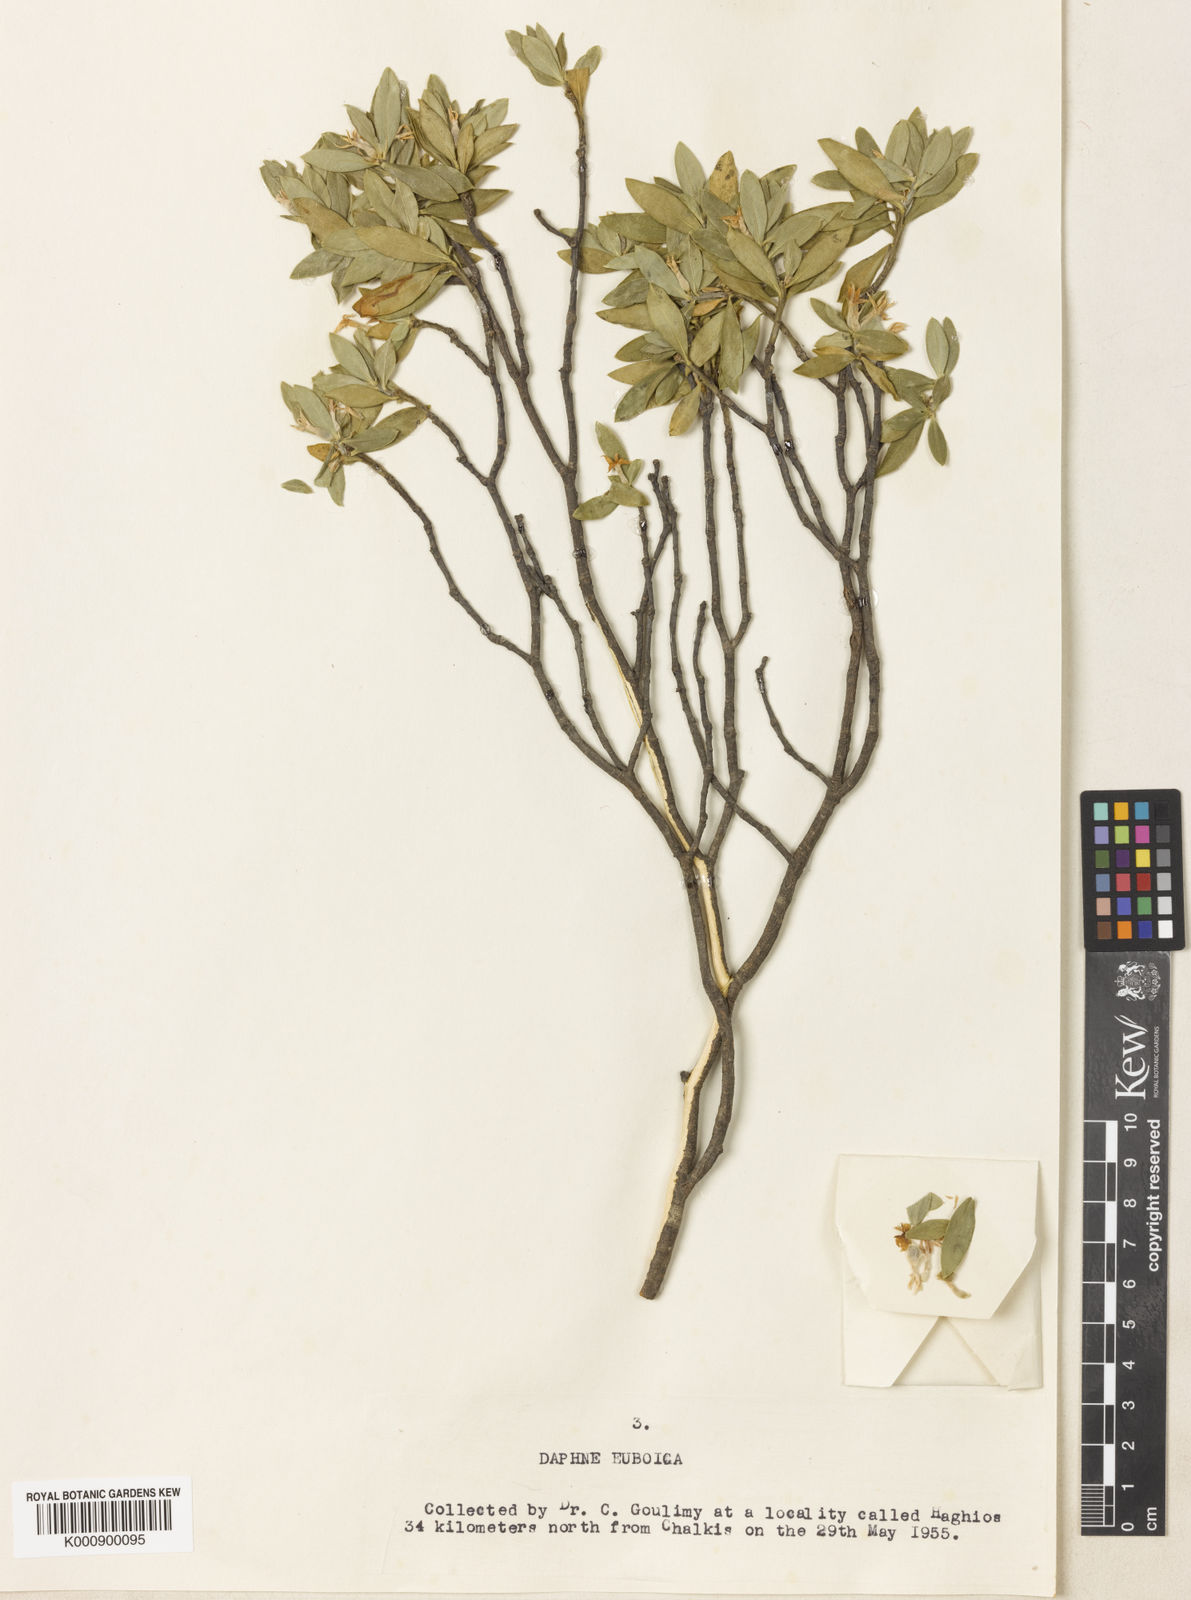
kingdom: Plantae
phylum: Tracheophyta
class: Magnoliopsida
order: Malvales
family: Thymelaeaceae
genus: Daphne
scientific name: Daphne oleoides
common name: Spurge-olive
